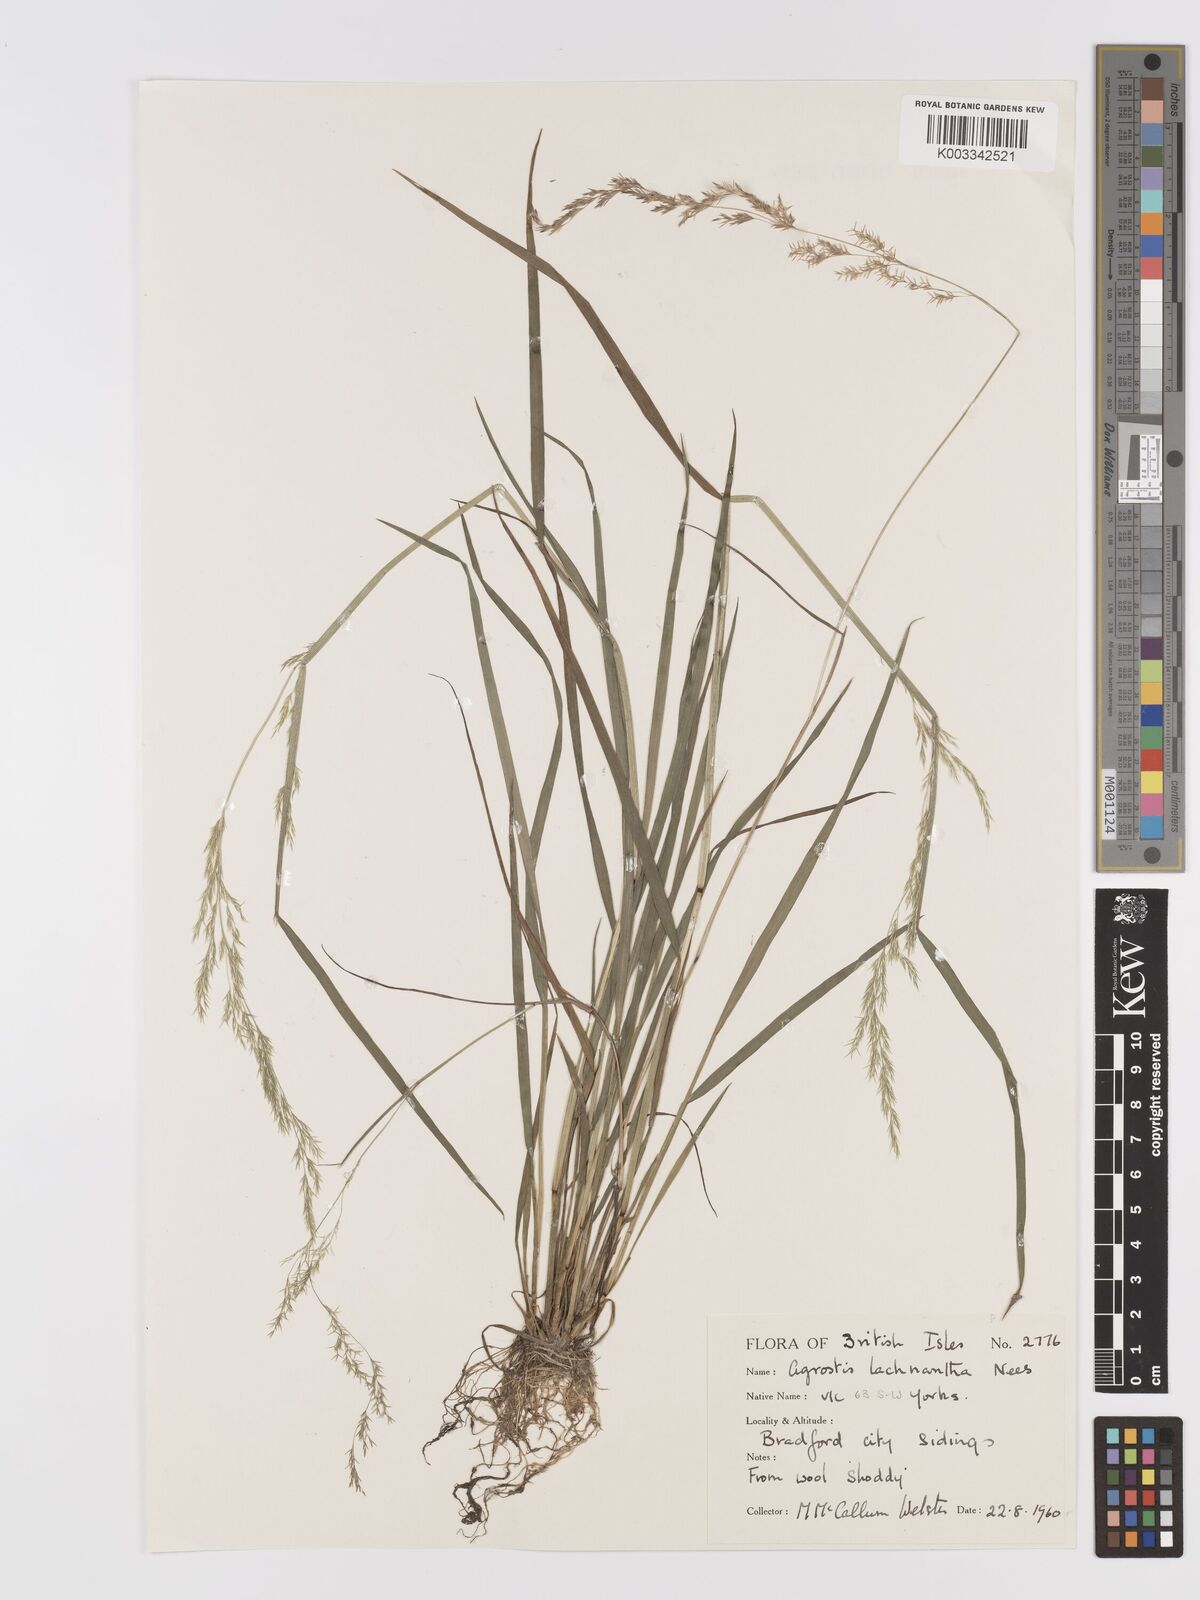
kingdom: Plantae
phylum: Tracheophyta
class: Liliopsida
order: Poales
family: Poaceae
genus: Lachnagrostis
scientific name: Lachnagrostis lachnantha
